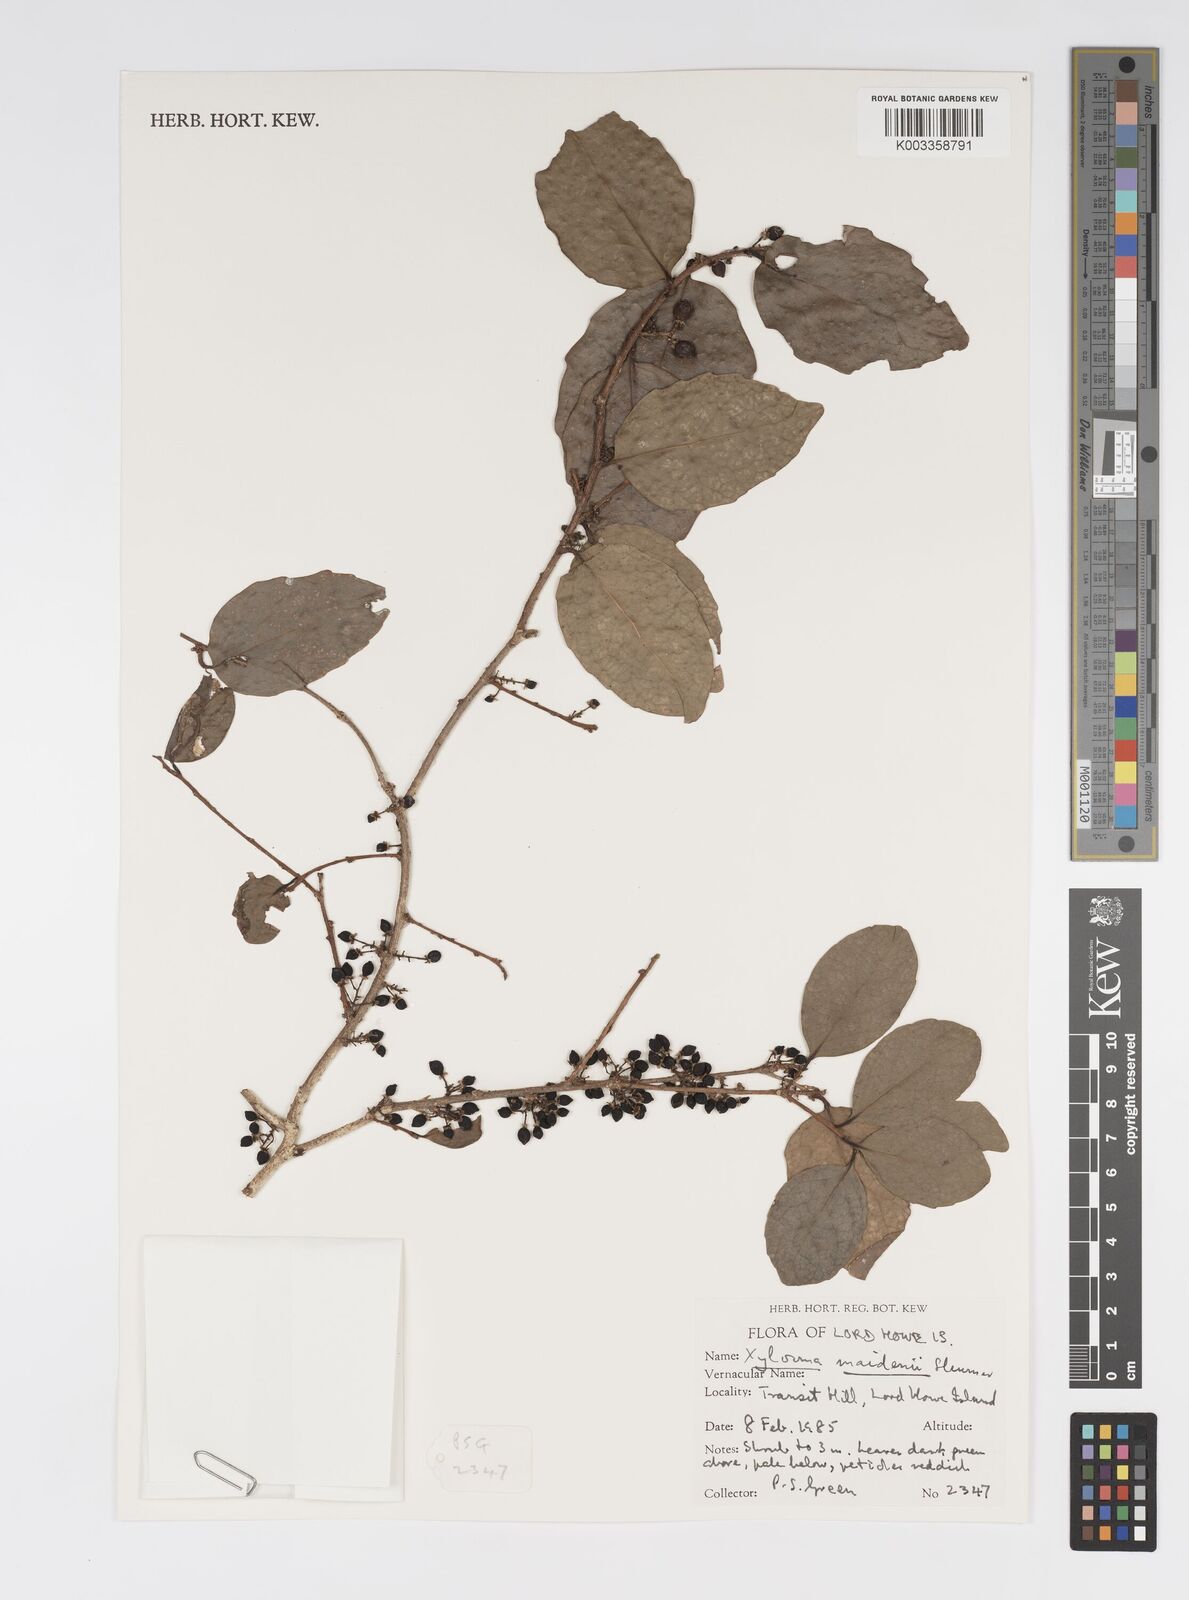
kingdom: Plantae
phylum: Tracheophyta
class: Magnoliopsida
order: Malpighiales
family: Salicaceae
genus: Xylosma
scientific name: Xylosma maidenii
